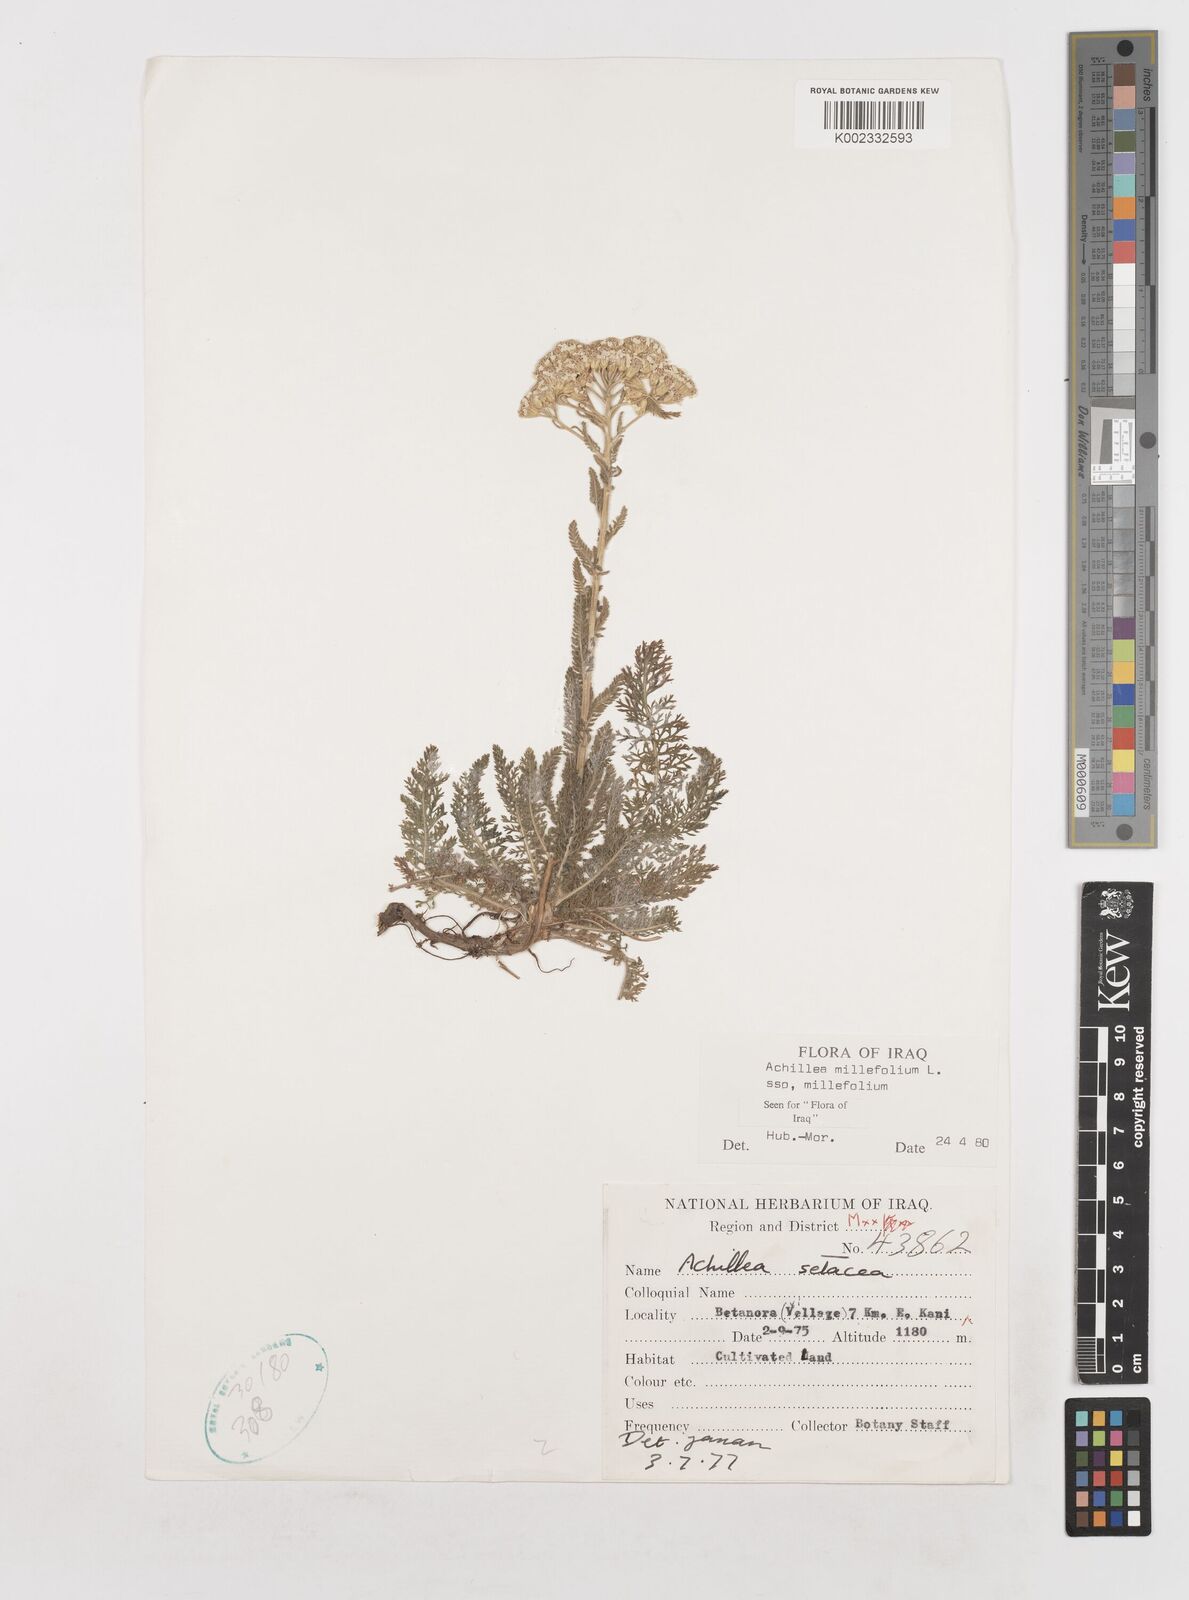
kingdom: Plantae
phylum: Tracheophyta
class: Magnoliopsida
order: Asterales
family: Asteraceae
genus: Achillea
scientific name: Achillea millefolium
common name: Yarrow
